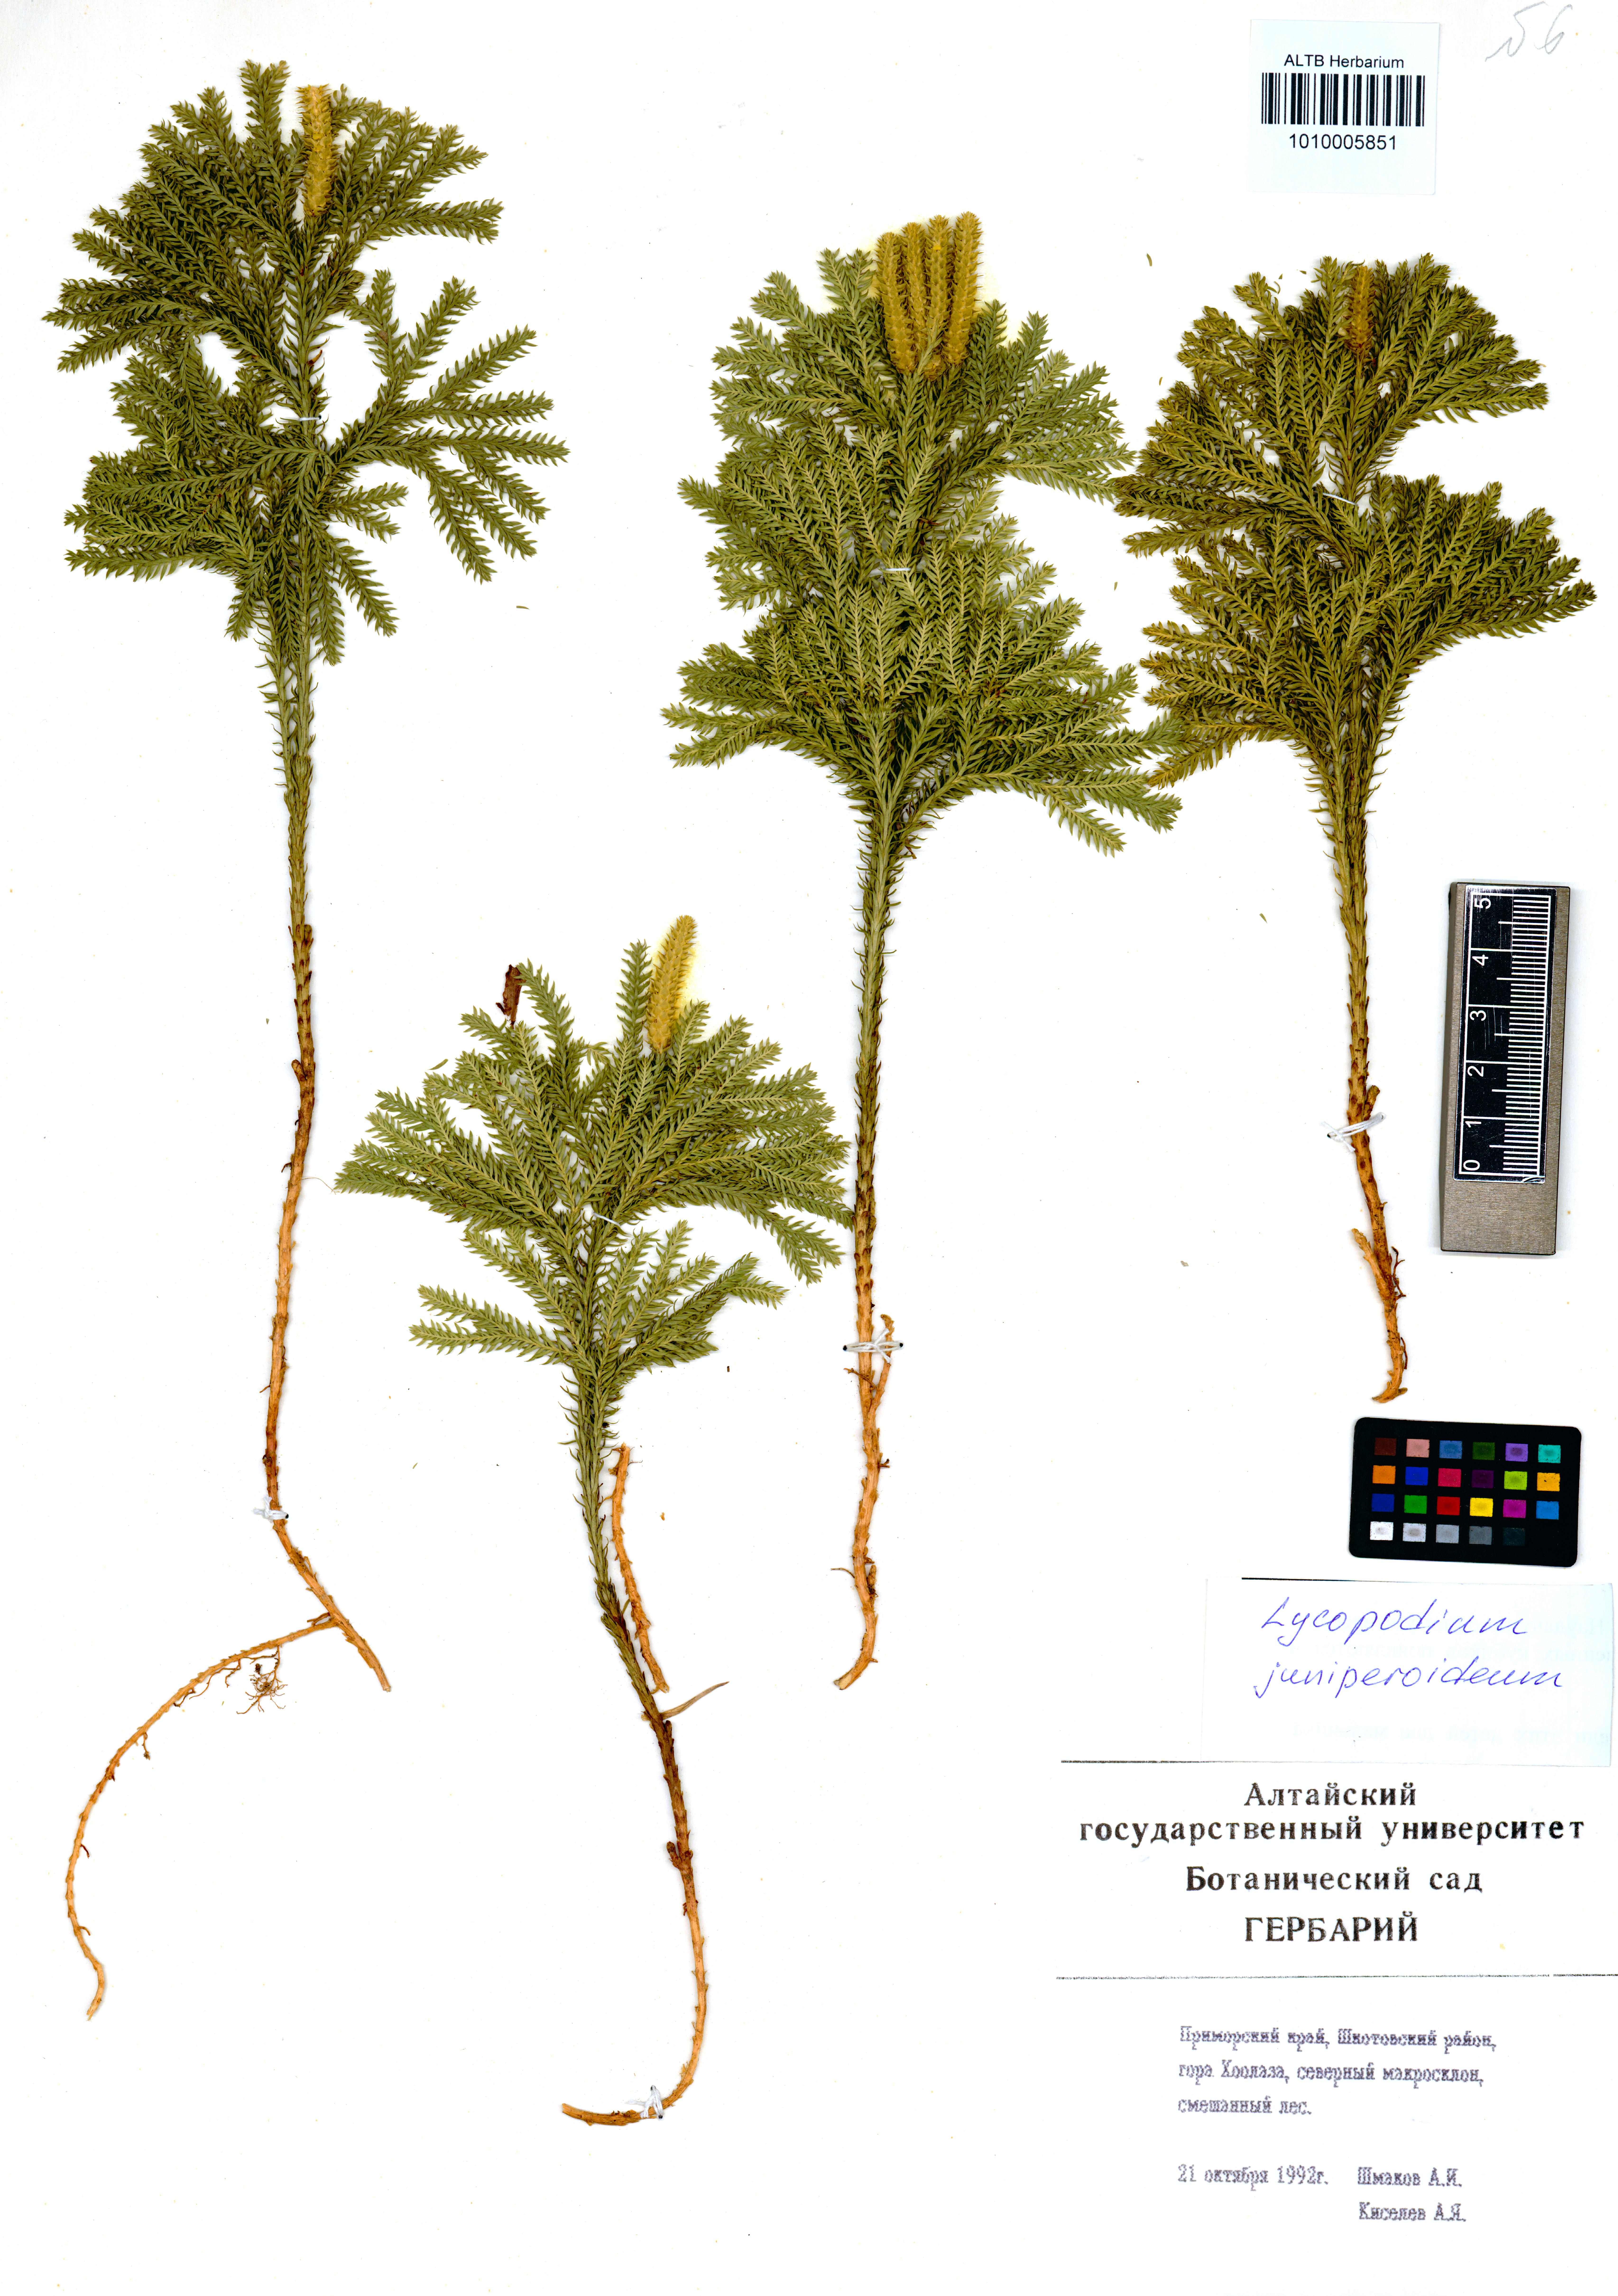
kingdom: Plantae
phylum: Tracheophyta
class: Lycopodiopsida
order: Lycopodiales
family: Lycopodiaceae
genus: Dendrolycopodium
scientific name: Dendrolycopodium juniperoideum
